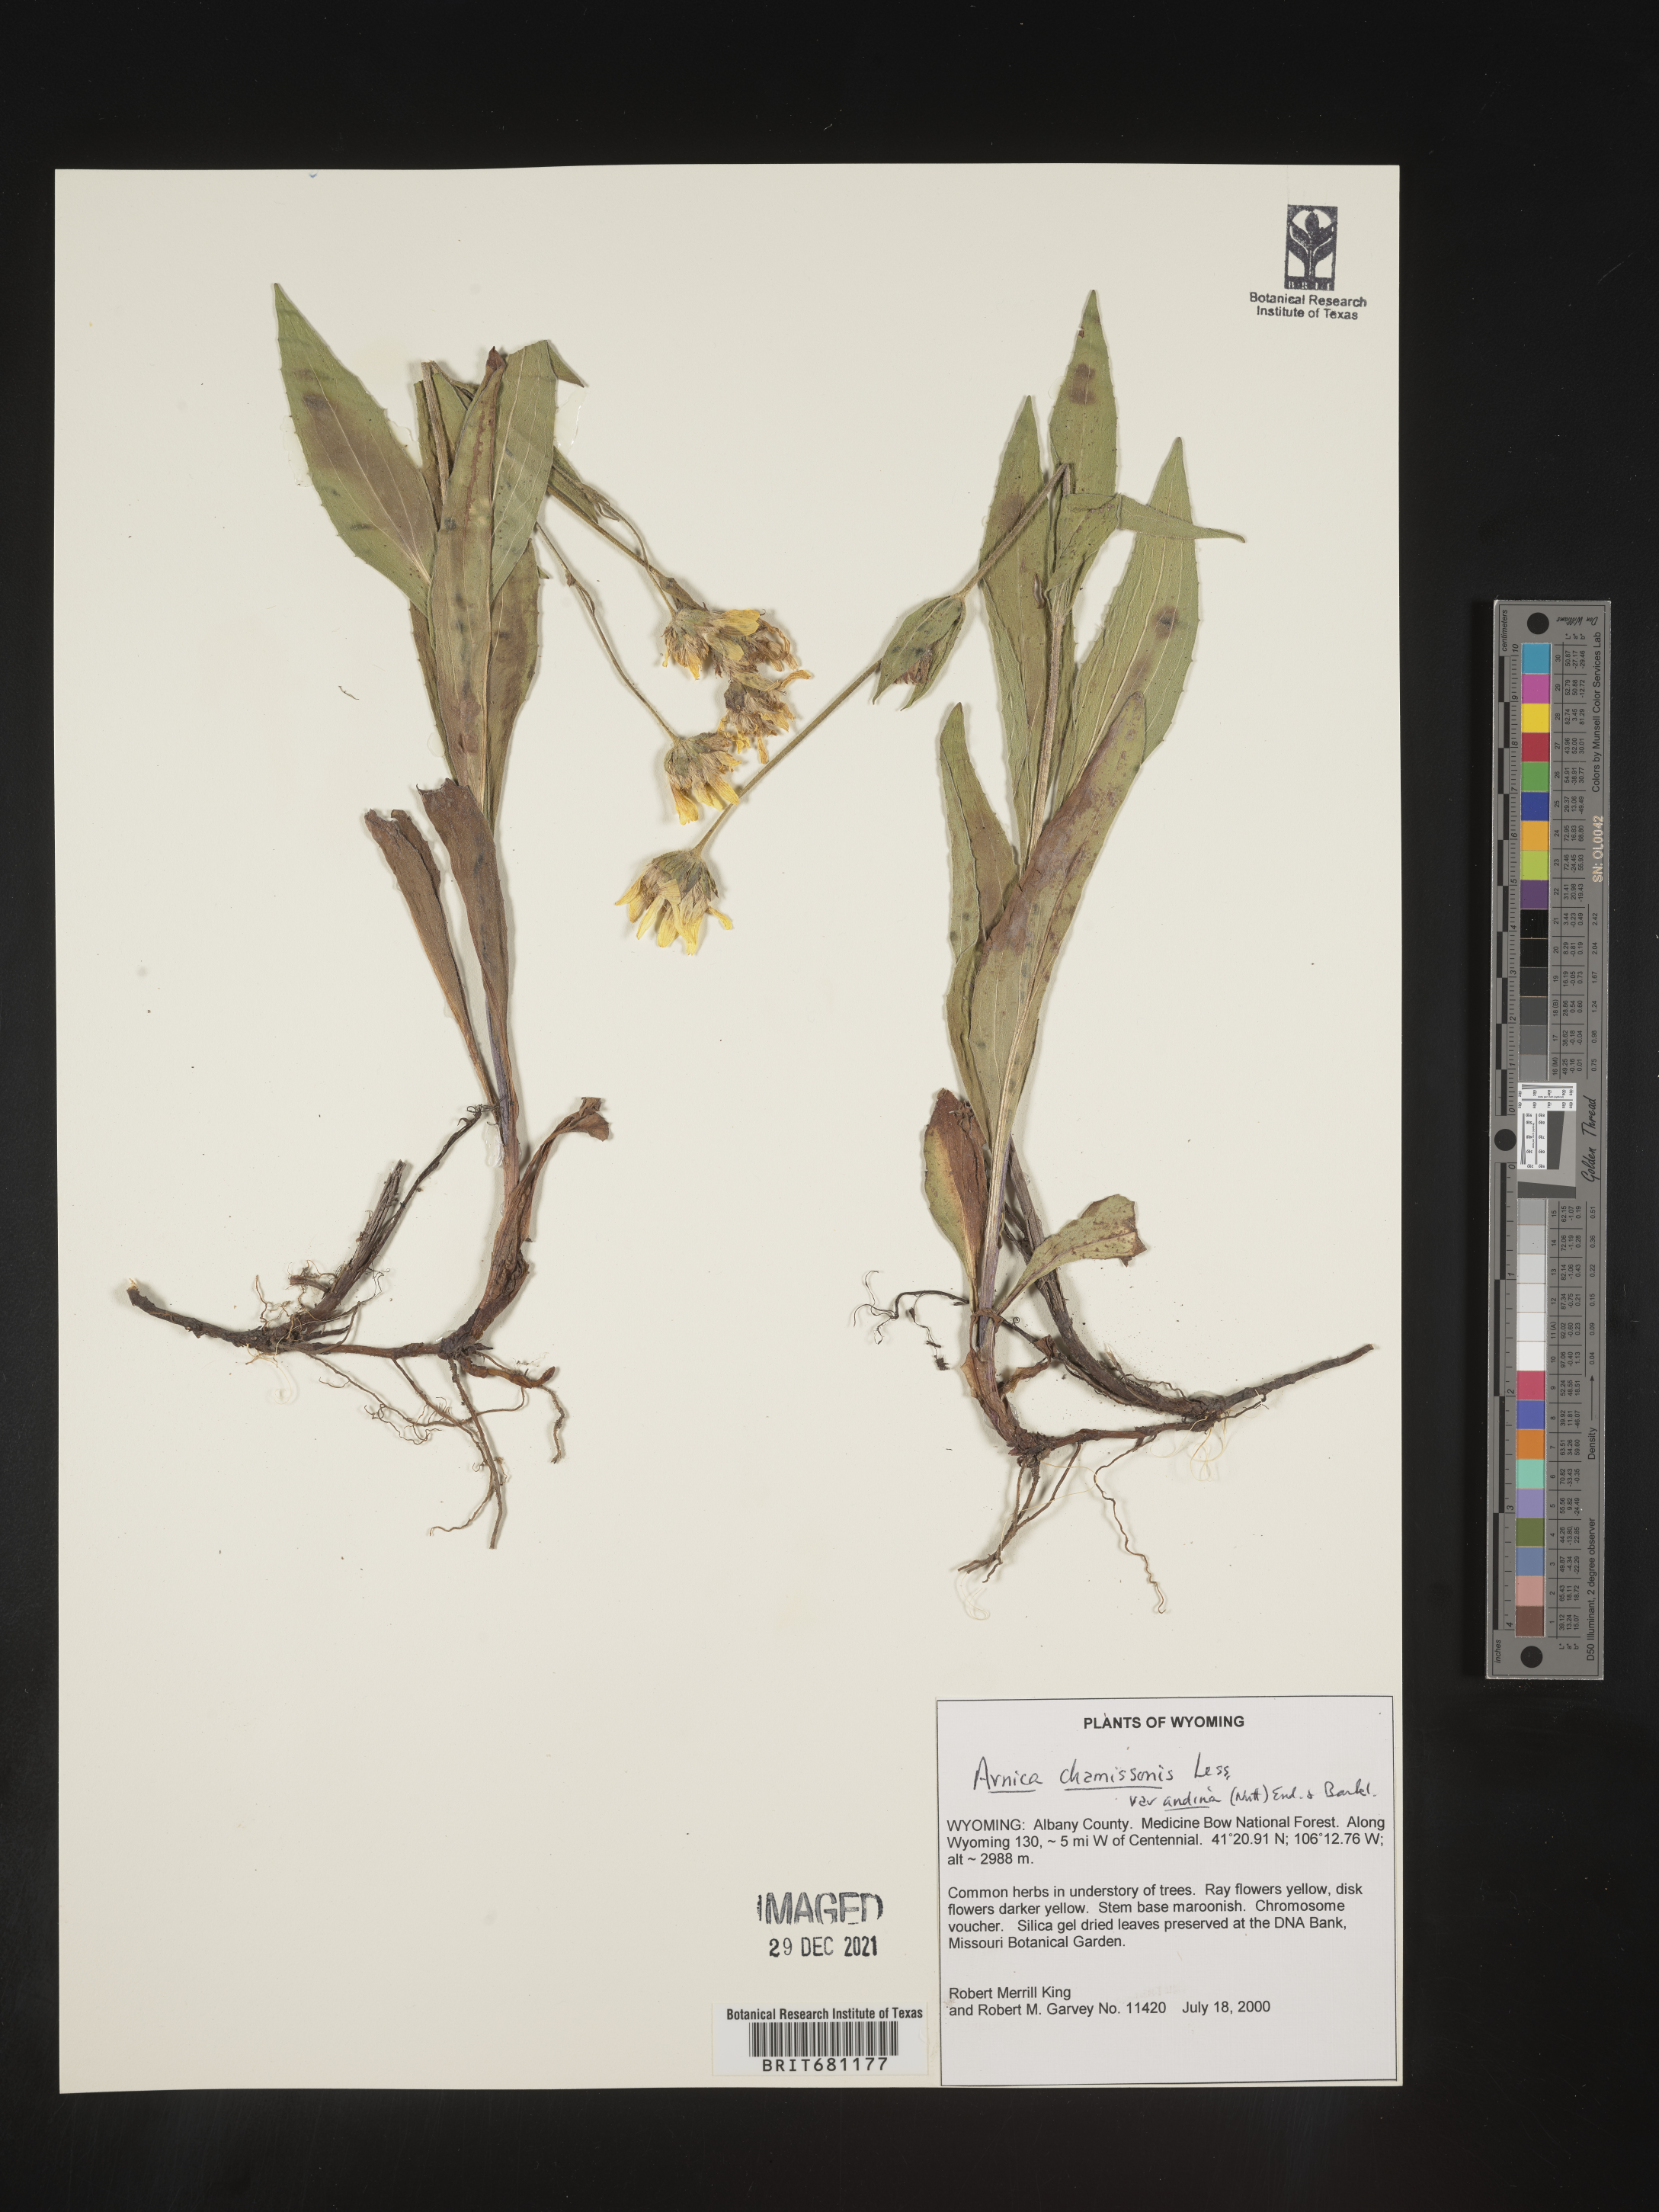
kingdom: Plantae
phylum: Tracheophyta
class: Magnoliopsida
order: Asterales
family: Asteraceae
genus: Arnica
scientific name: Arnica chamissonis
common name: Leafy arnica
